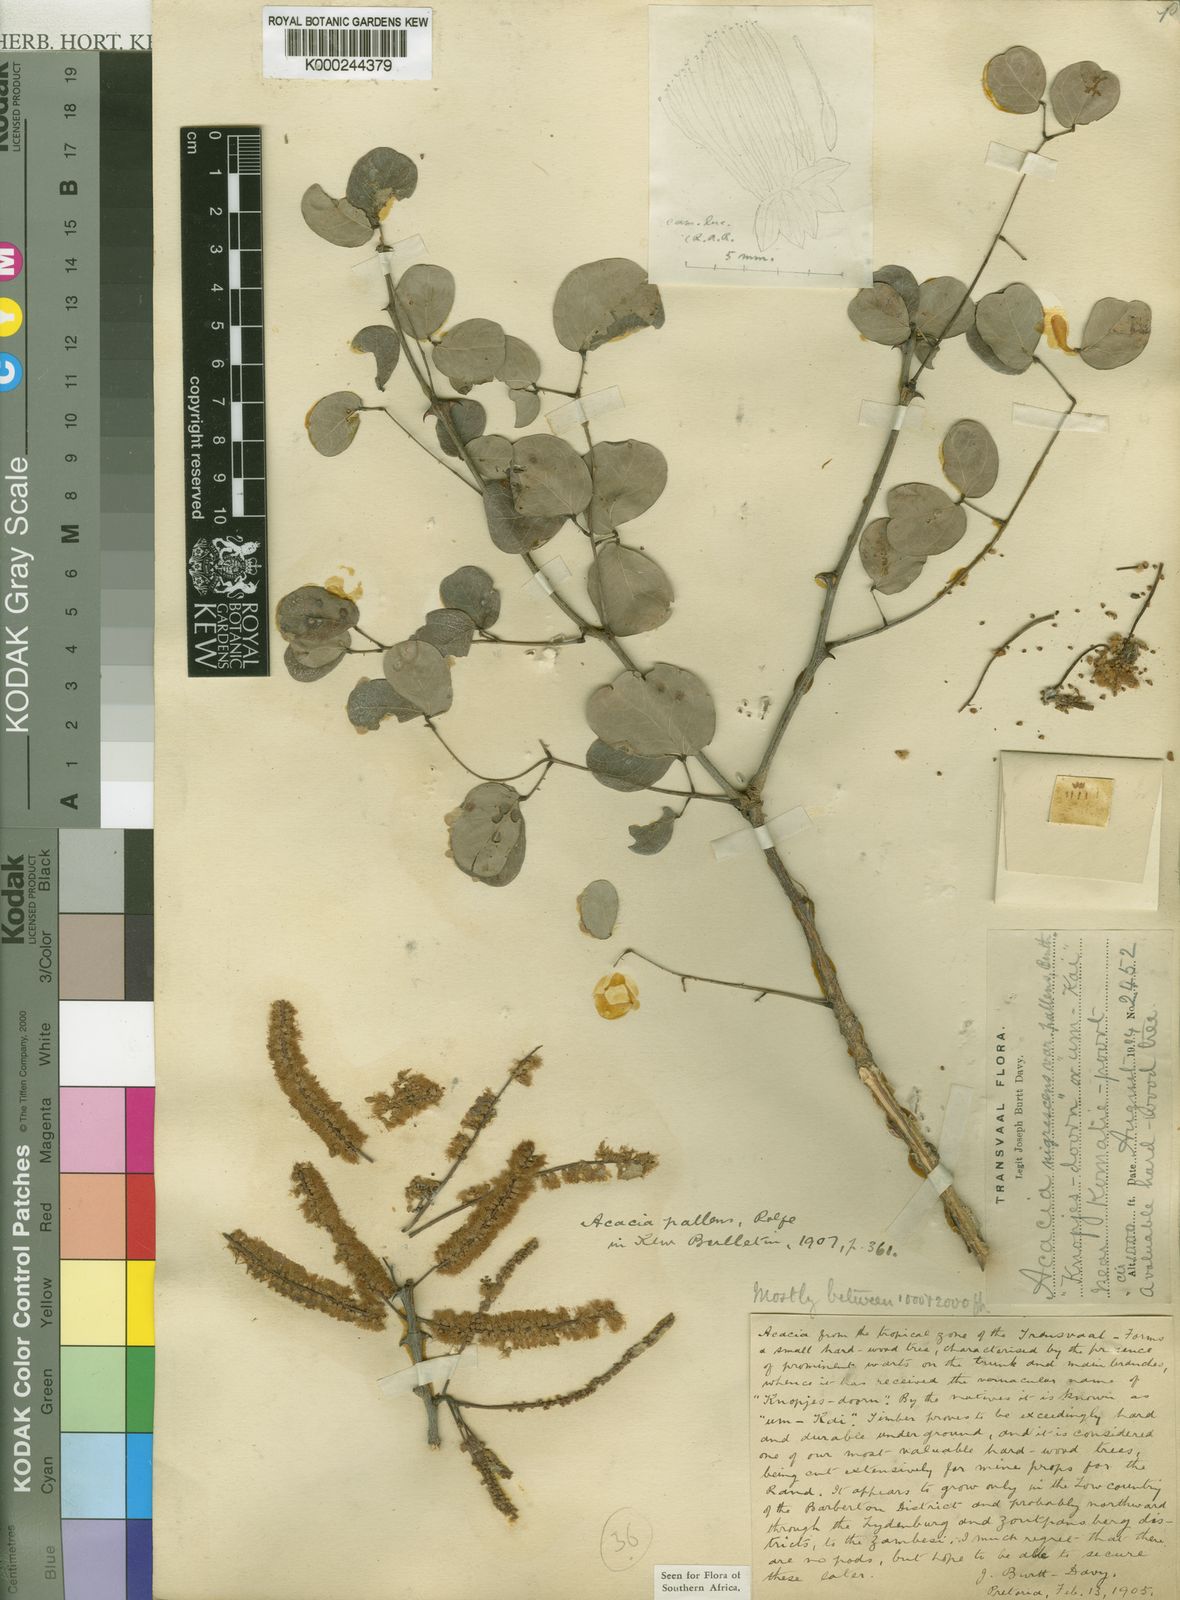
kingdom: Plantae
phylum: Tracheophyta
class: Magnoliopsida
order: Fabales
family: Fabaceae
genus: Senegalia
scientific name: Senegalia nigrescens
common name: Knobthorn
